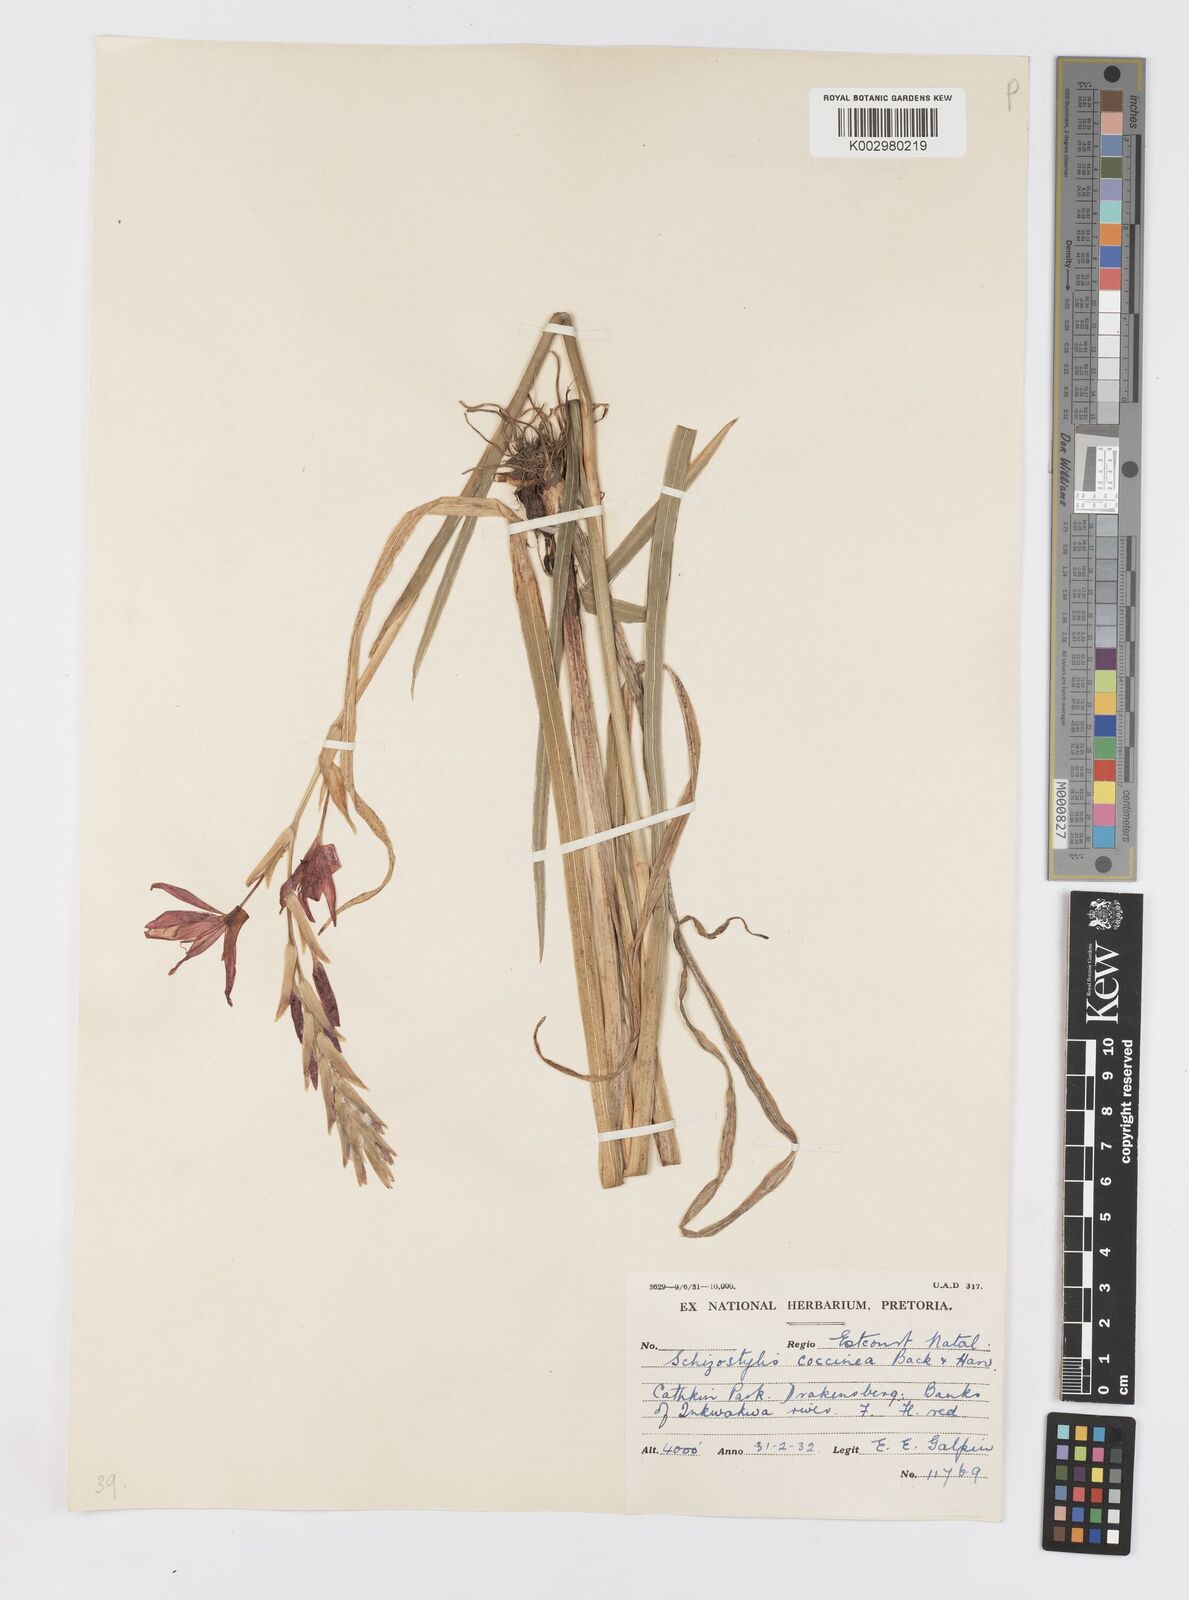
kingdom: Plantae
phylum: Tracheophyta
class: Liliopsida
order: Asparagales
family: Iridaceae
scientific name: Iridaceae
